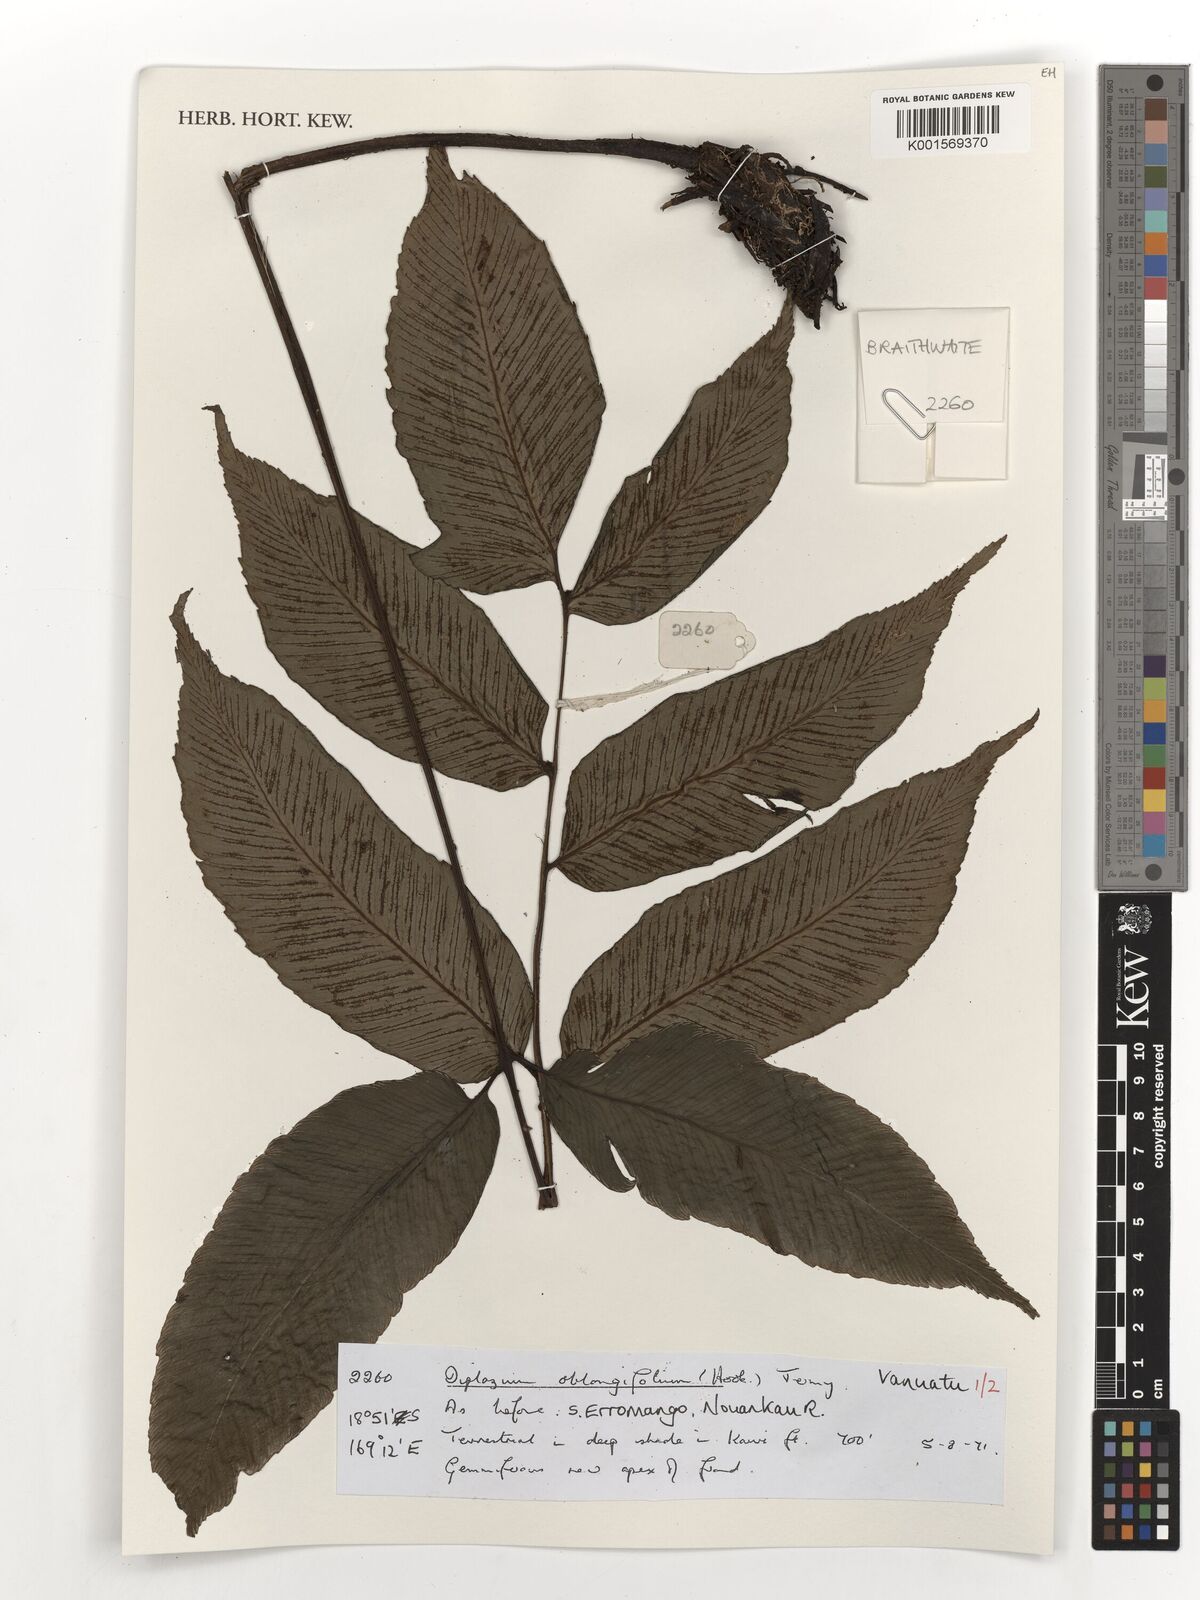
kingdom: Plantae
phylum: Tracheophyta
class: Polypodiopsida
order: Polypodiales
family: Athyriaceae
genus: Diplazium
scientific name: Diplazium oblongifolium
